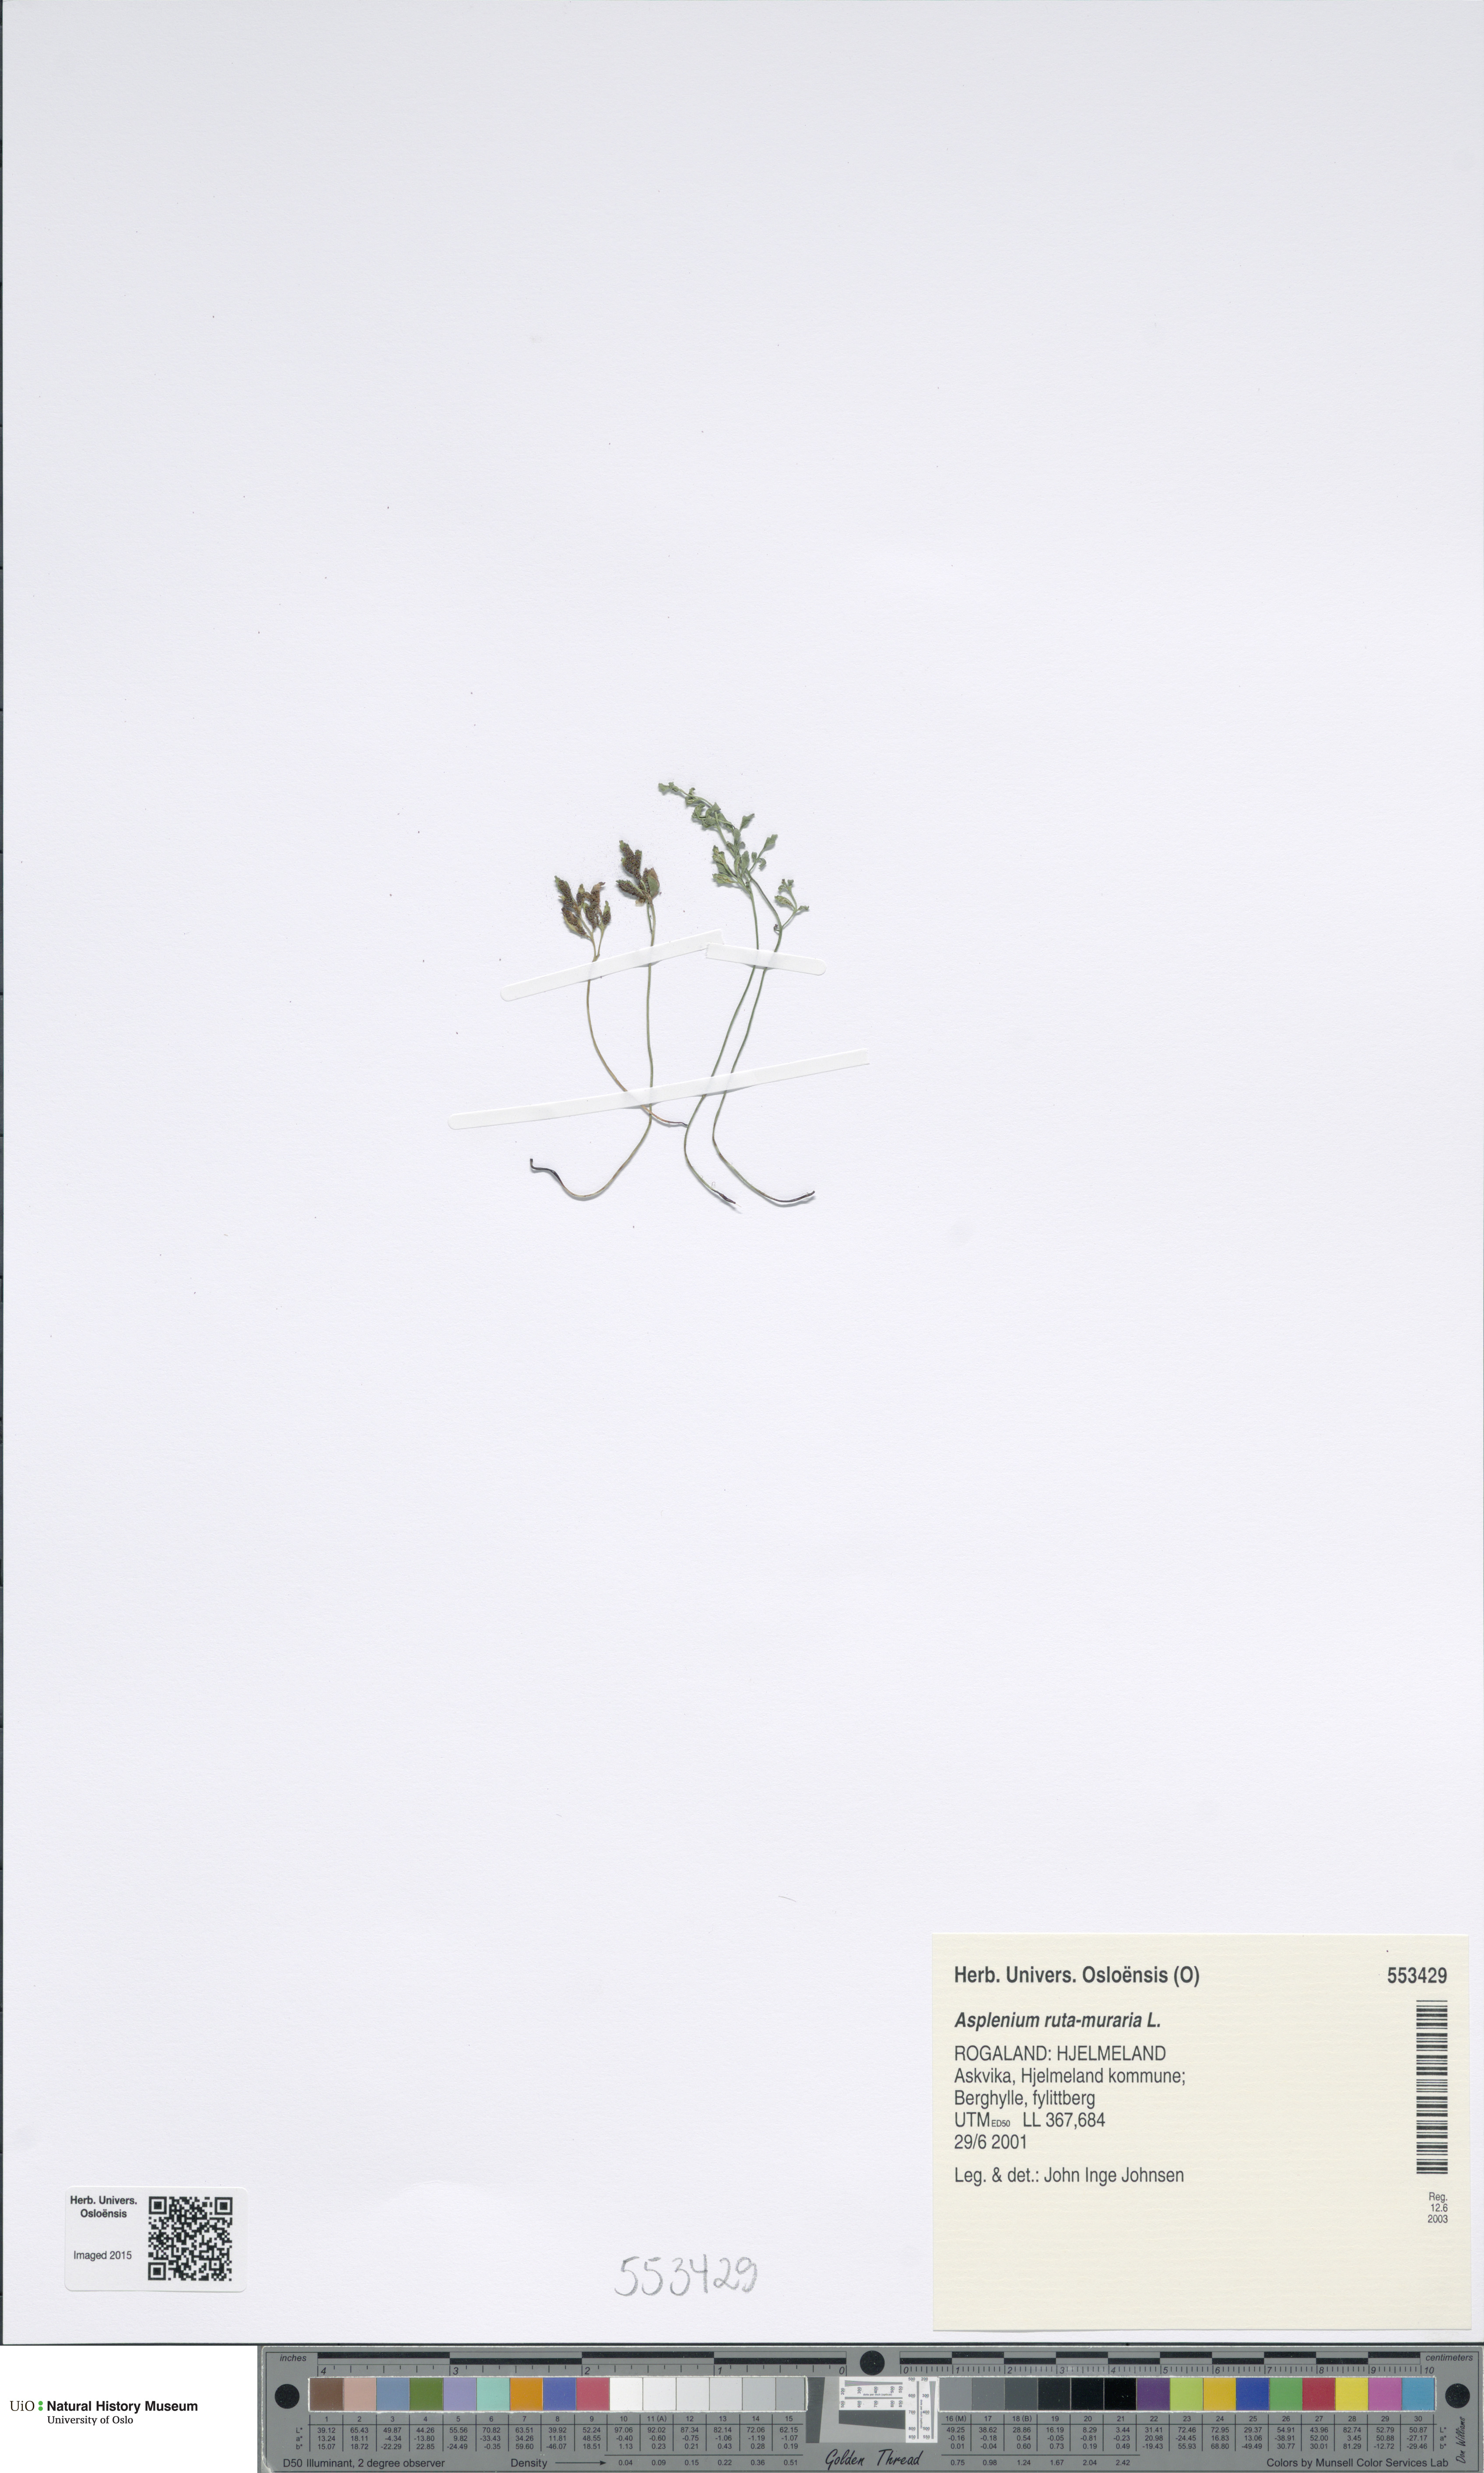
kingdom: Plantae
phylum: Tracheophyta
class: Polypodiopsida
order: Polypodiales
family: Aspleniaceae
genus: Asplenium
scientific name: Asplenium ruta-muraria
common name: Wall-rue
